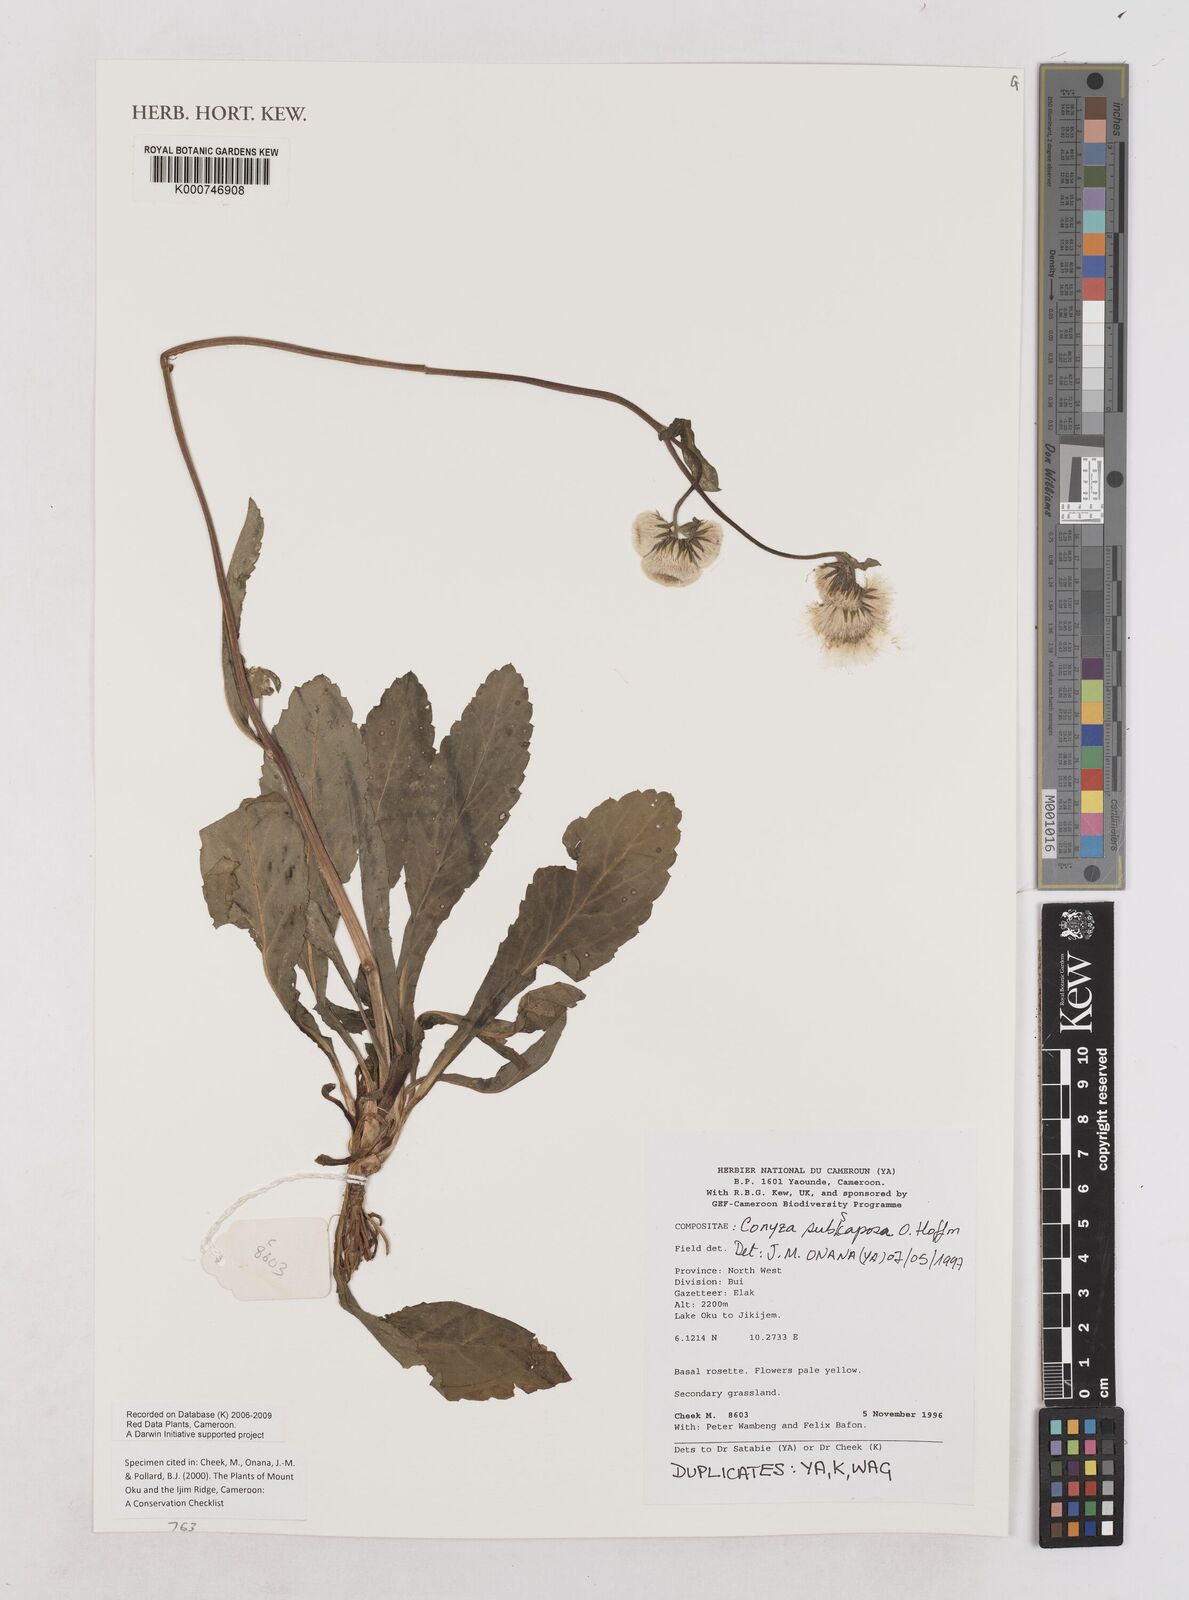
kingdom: Plantae
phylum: Tracheophyta
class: Magnoliopsida
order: Asterales
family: Asteraceae
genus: Eschenbachia
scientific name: Eschenbachia subscaposa
